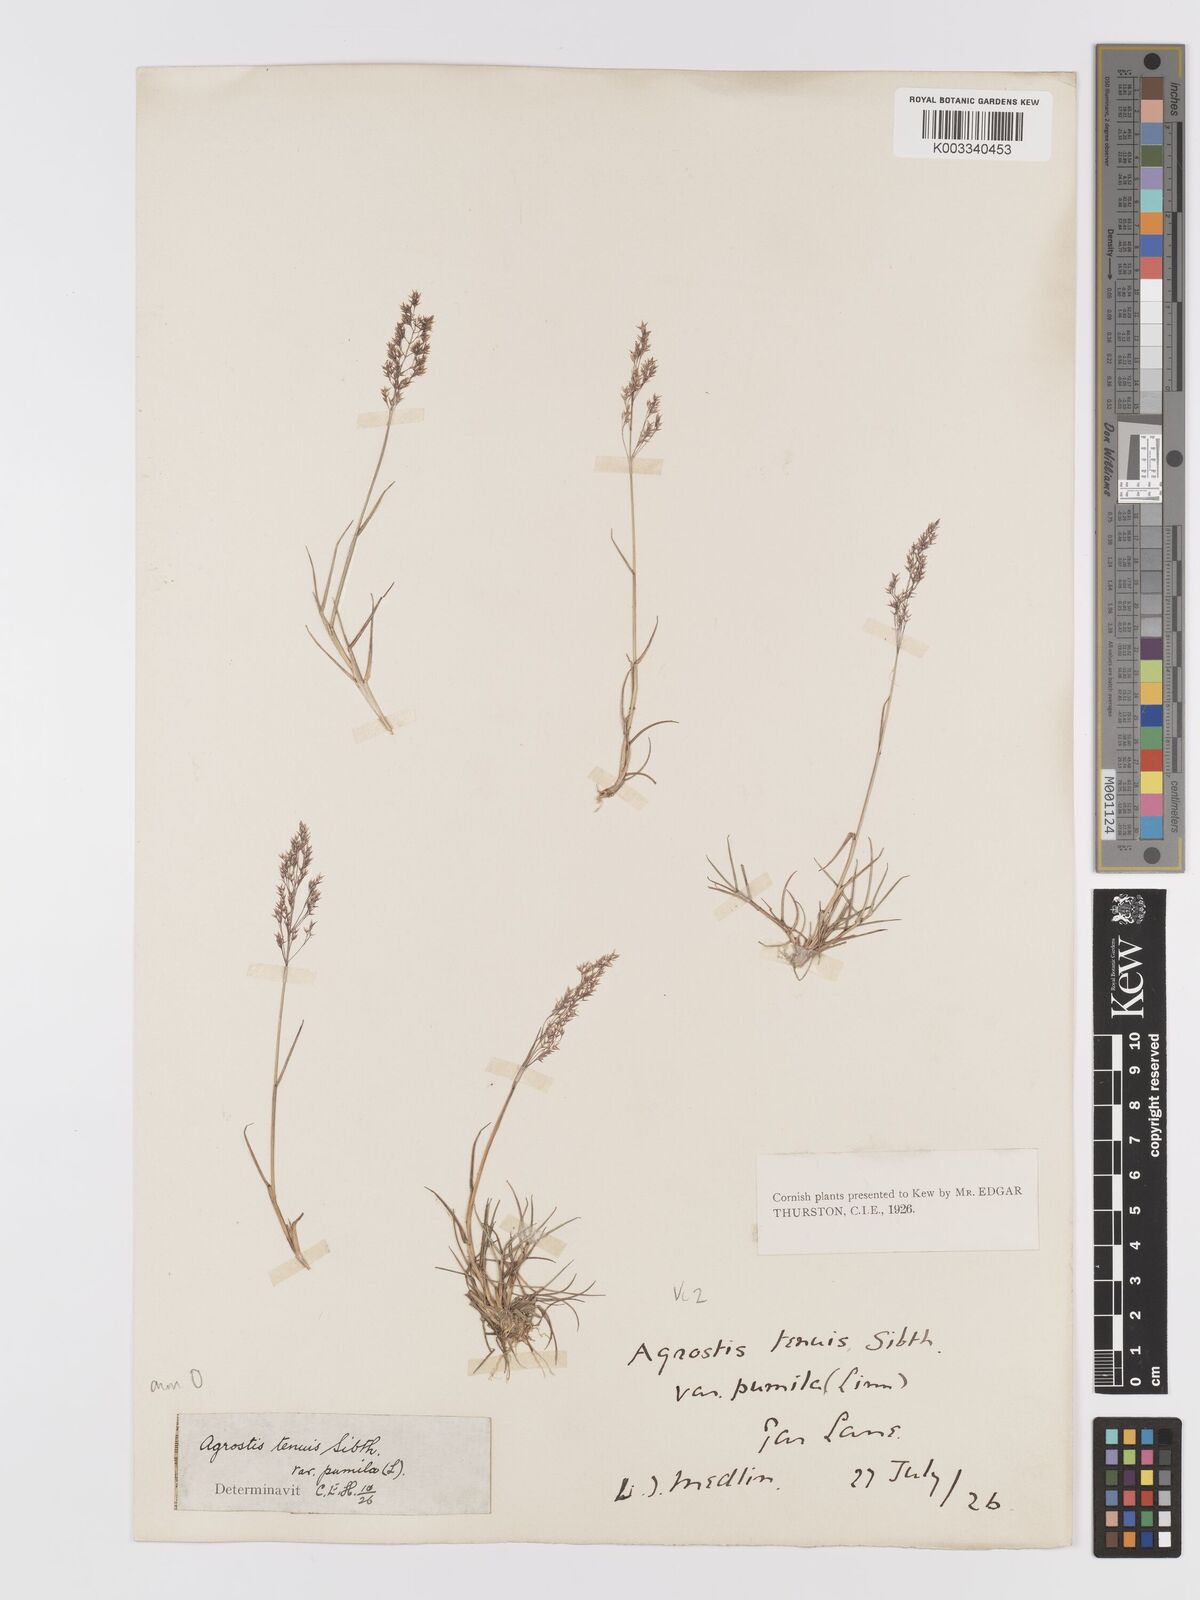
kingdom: Plantae
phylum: Tracheophyta
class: Liliopsida
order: Poales
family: Poaceae
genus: Agrostis
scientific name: Agrostis capillaris
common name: Colonial bentgrass
